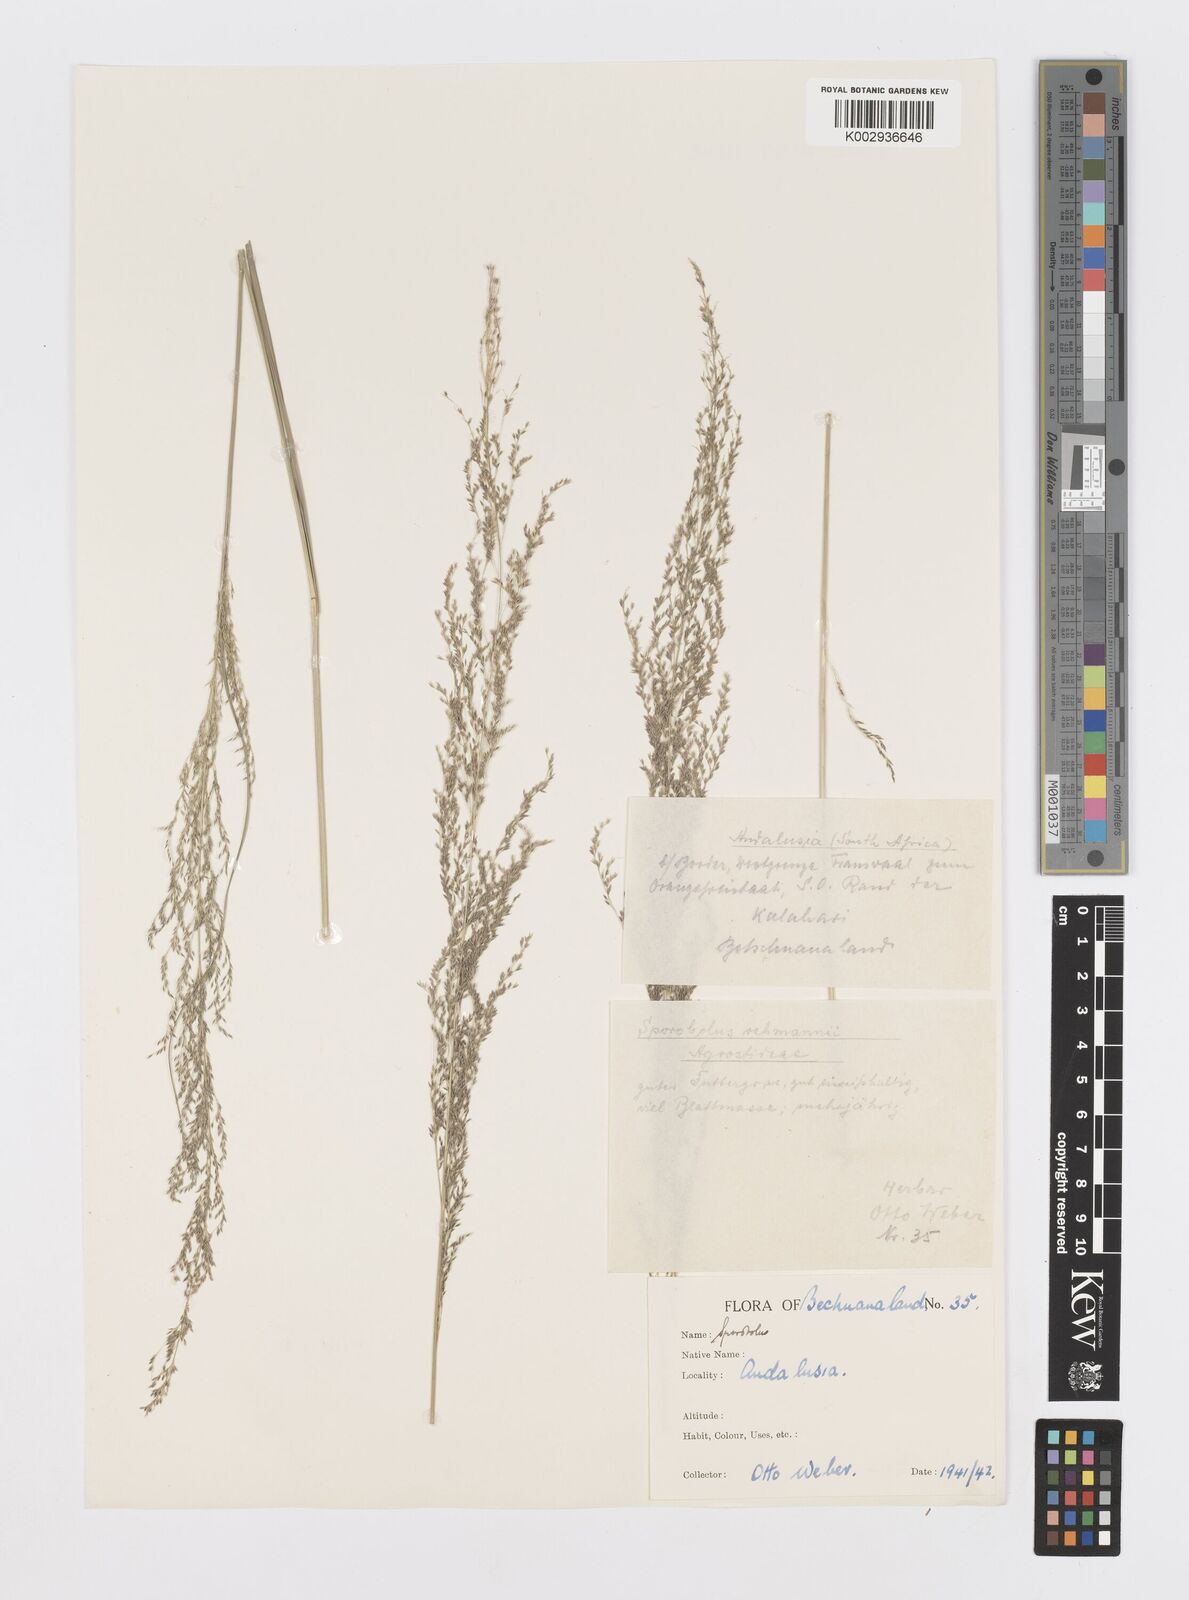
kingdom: Plantae
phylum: Tracheophyta
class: Liliopsida
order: Poales
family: Poaceae
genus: Sporobolus
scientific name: Sporobolus fimbriatus
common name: Fringed dropseed
